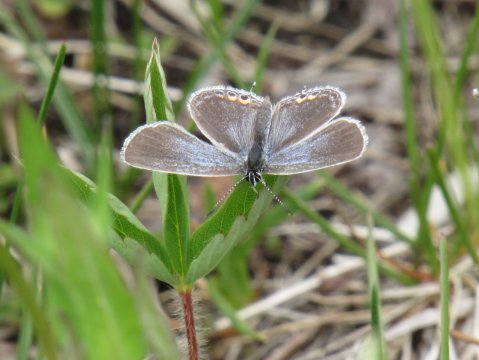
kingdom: Animalia
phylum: Arthropoda
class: Insecta
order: Lepidoptera
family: Lycaenidae
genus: Elkalyce
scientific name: Elkalyce comyntas
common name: Eastern Tailed-Blue
